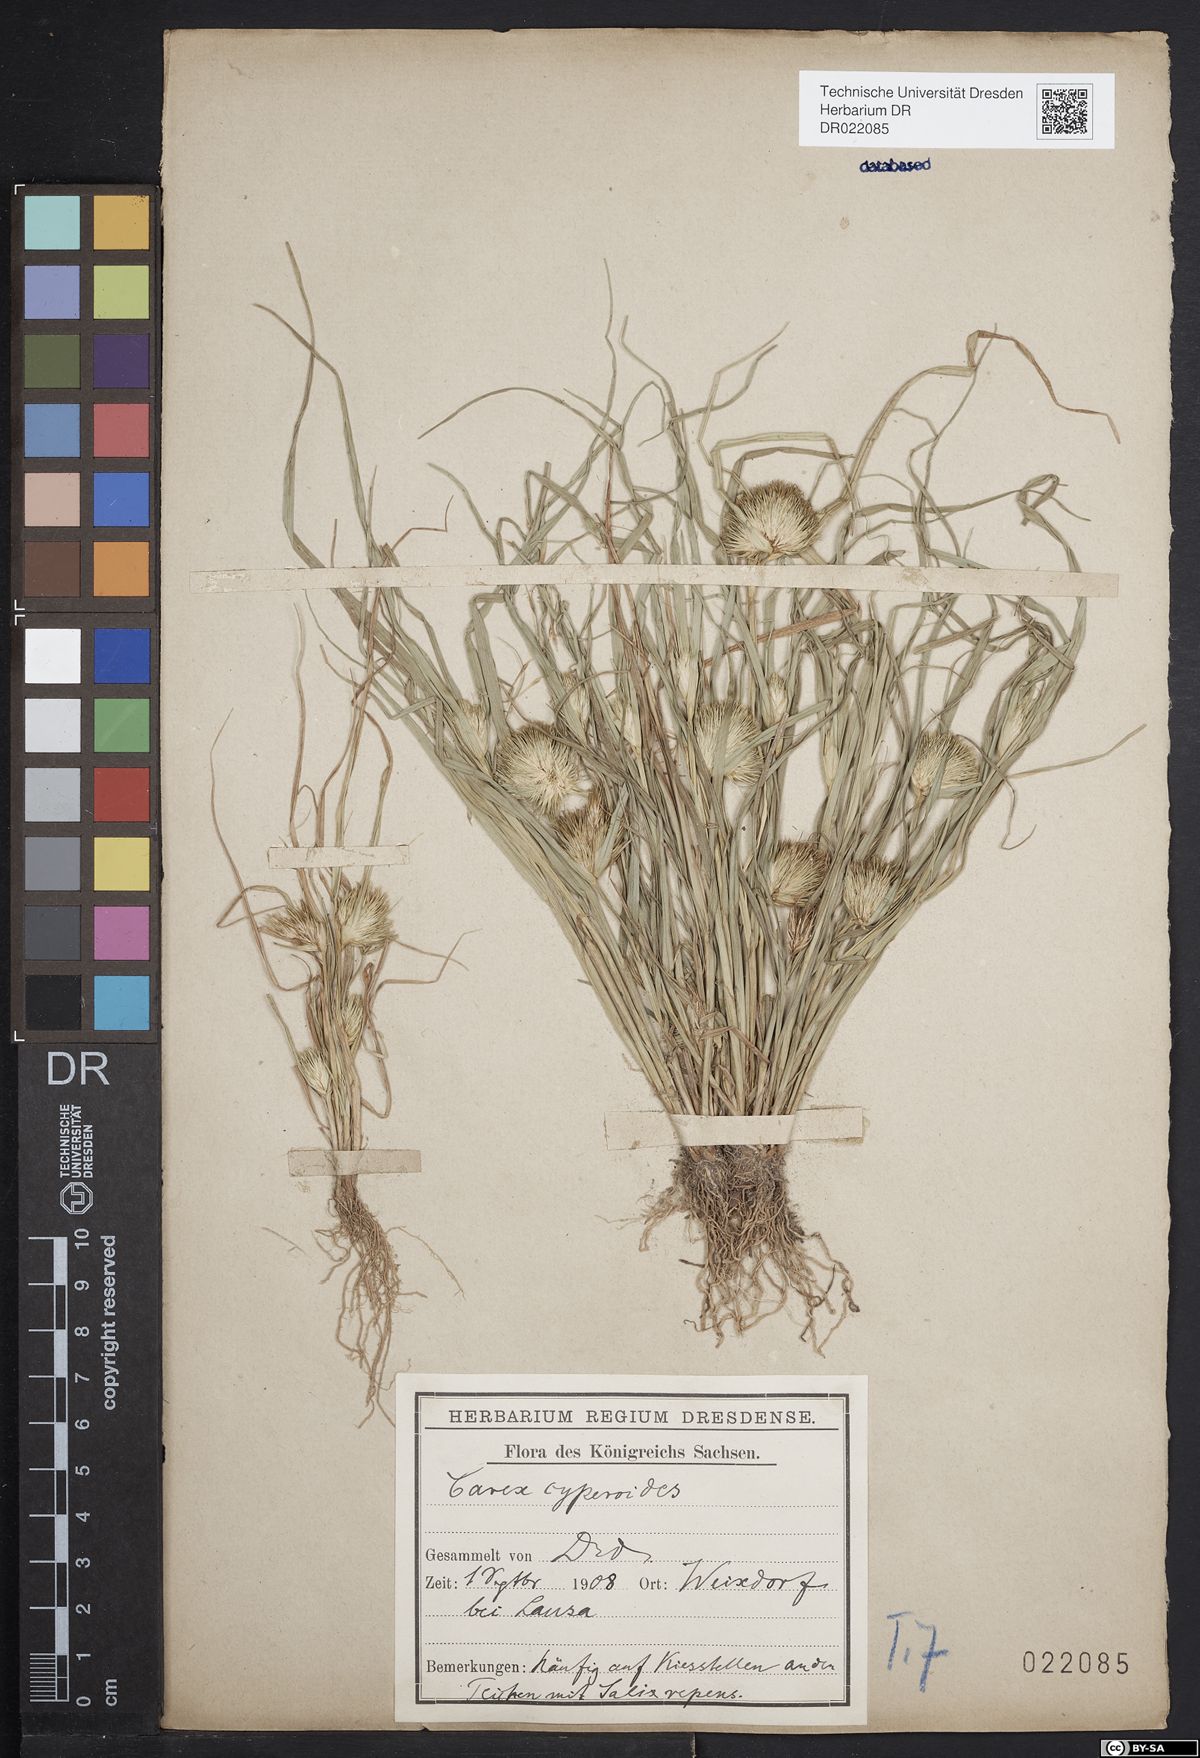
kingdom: Plantae
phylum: Tracheophyta
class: Liliopsida
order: Poales
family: Cyperaceae
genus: Carex
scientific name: Carex bohemica
